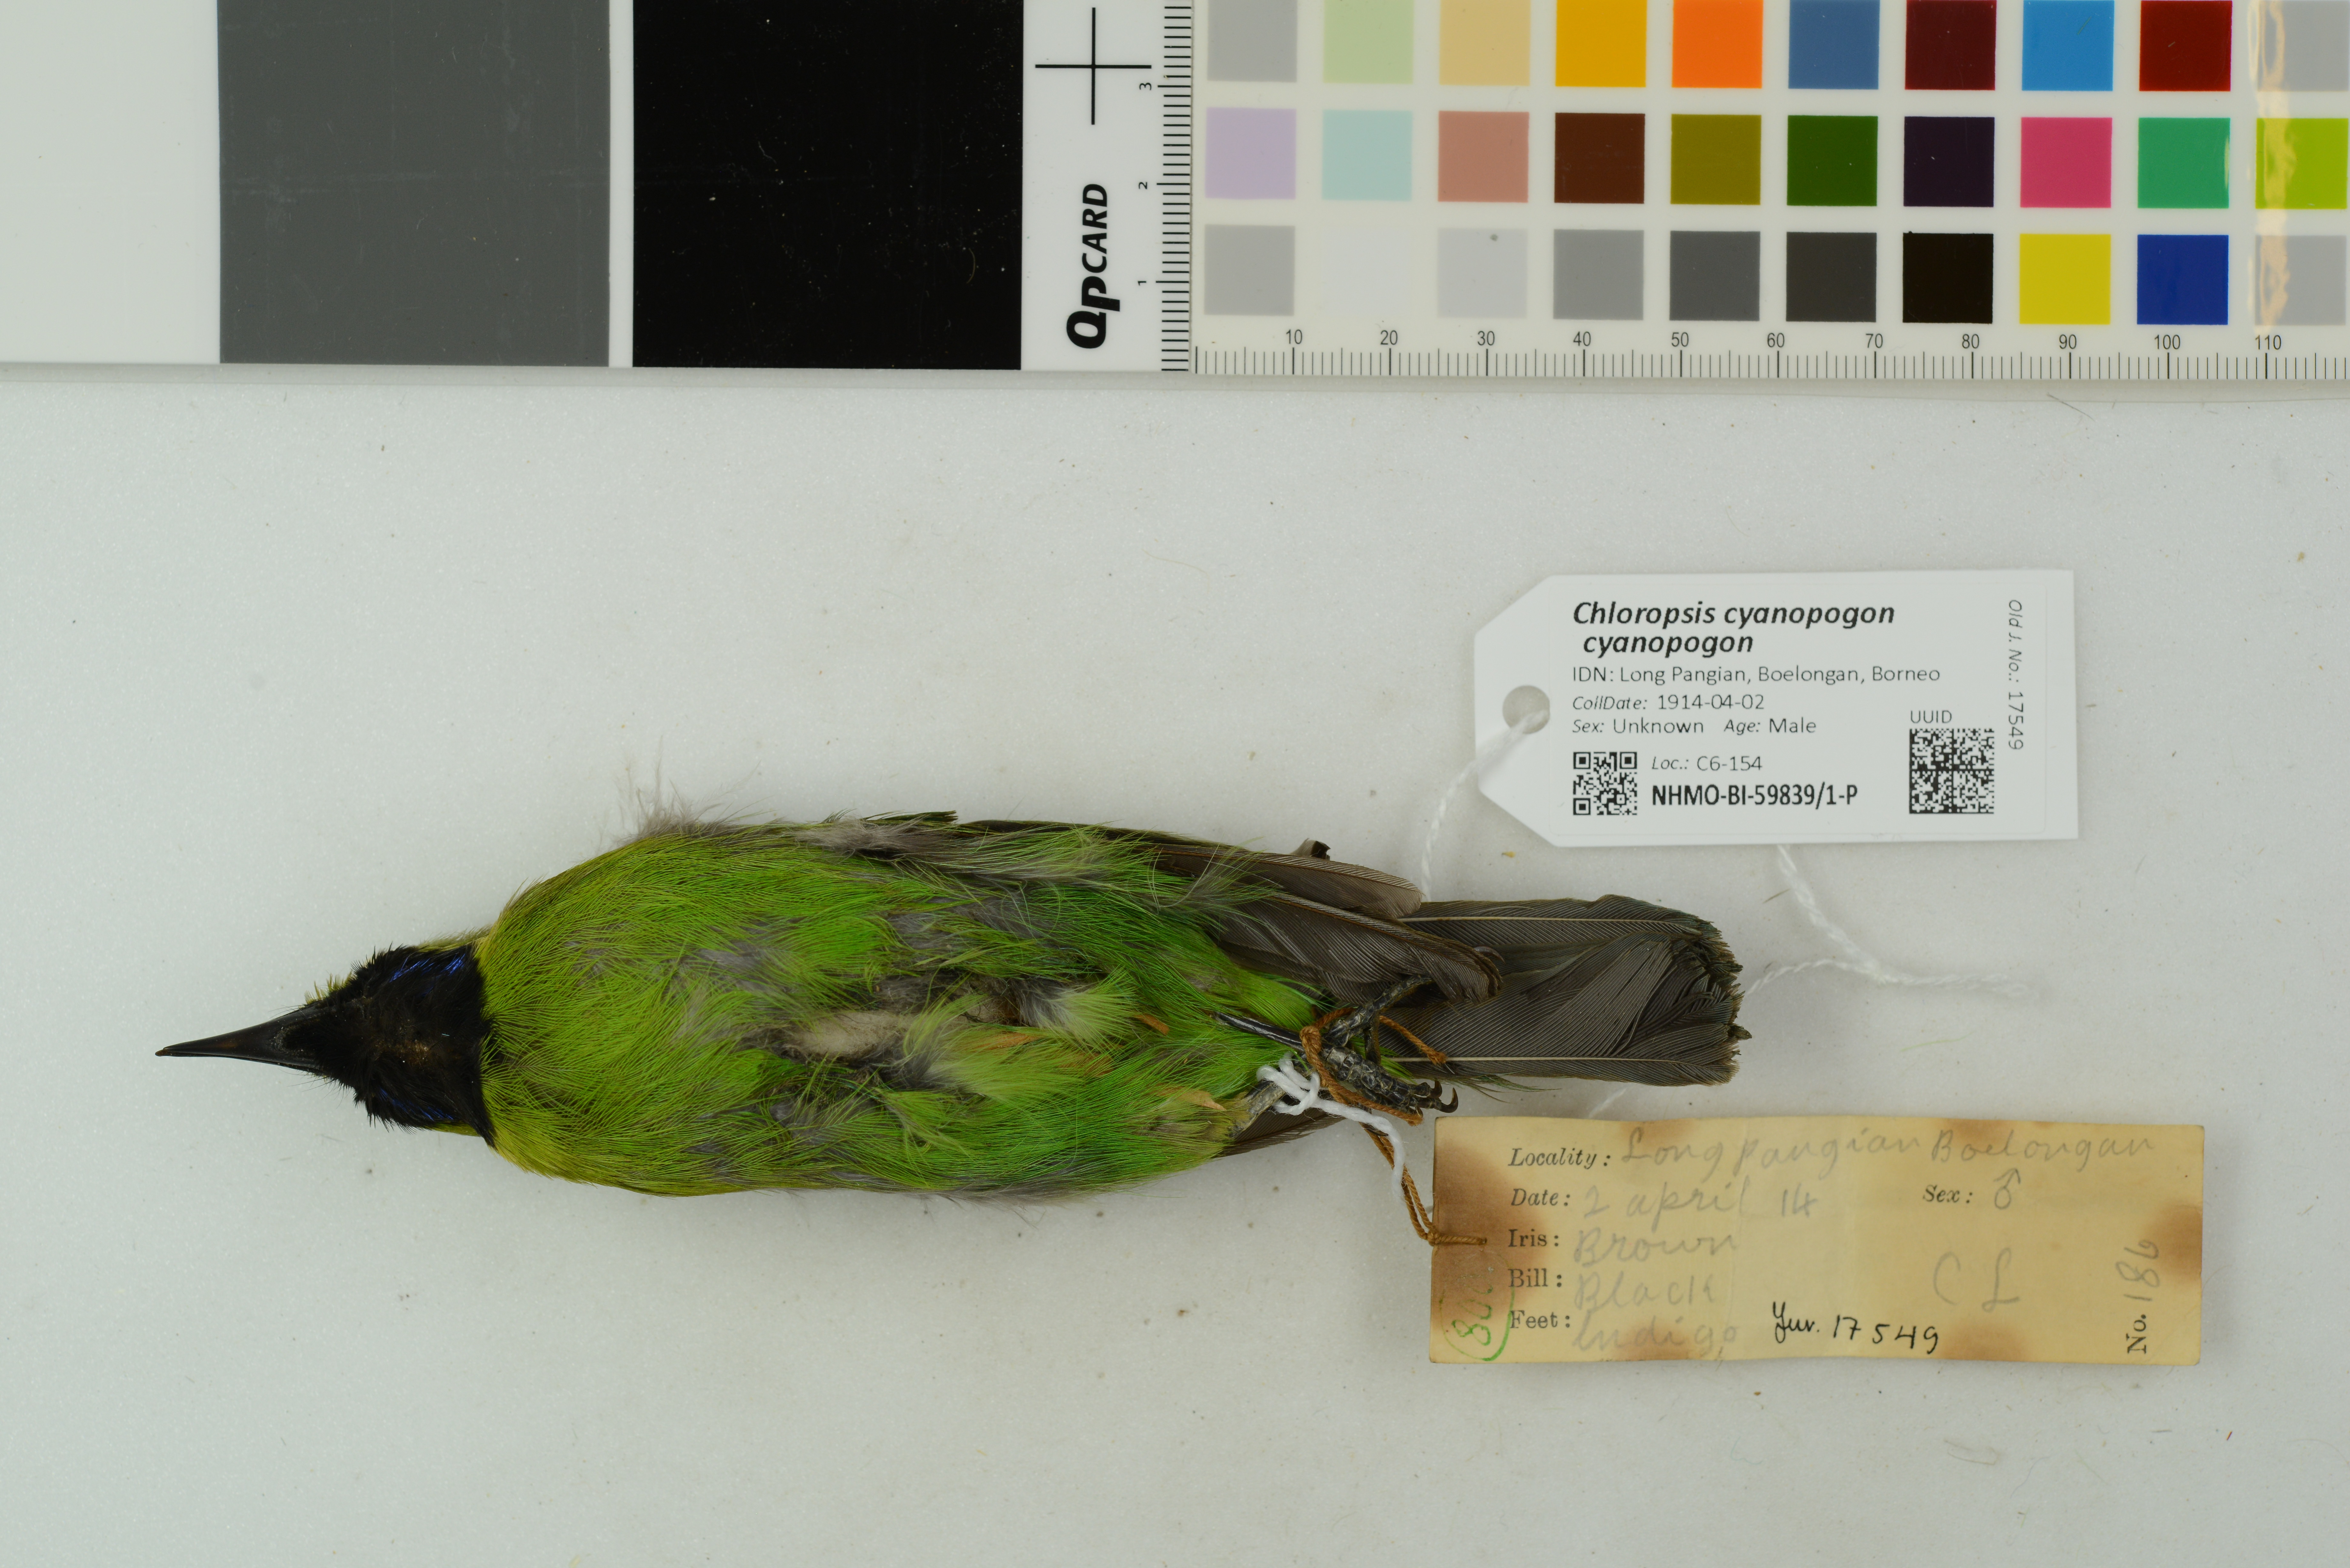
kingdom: Animalia
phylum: Chordata
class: Aves
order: Passeriformes
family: Chloropseidae
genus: Chloropsis
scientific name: Chloropsis cyanopogon
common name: Lesser green leafbird
